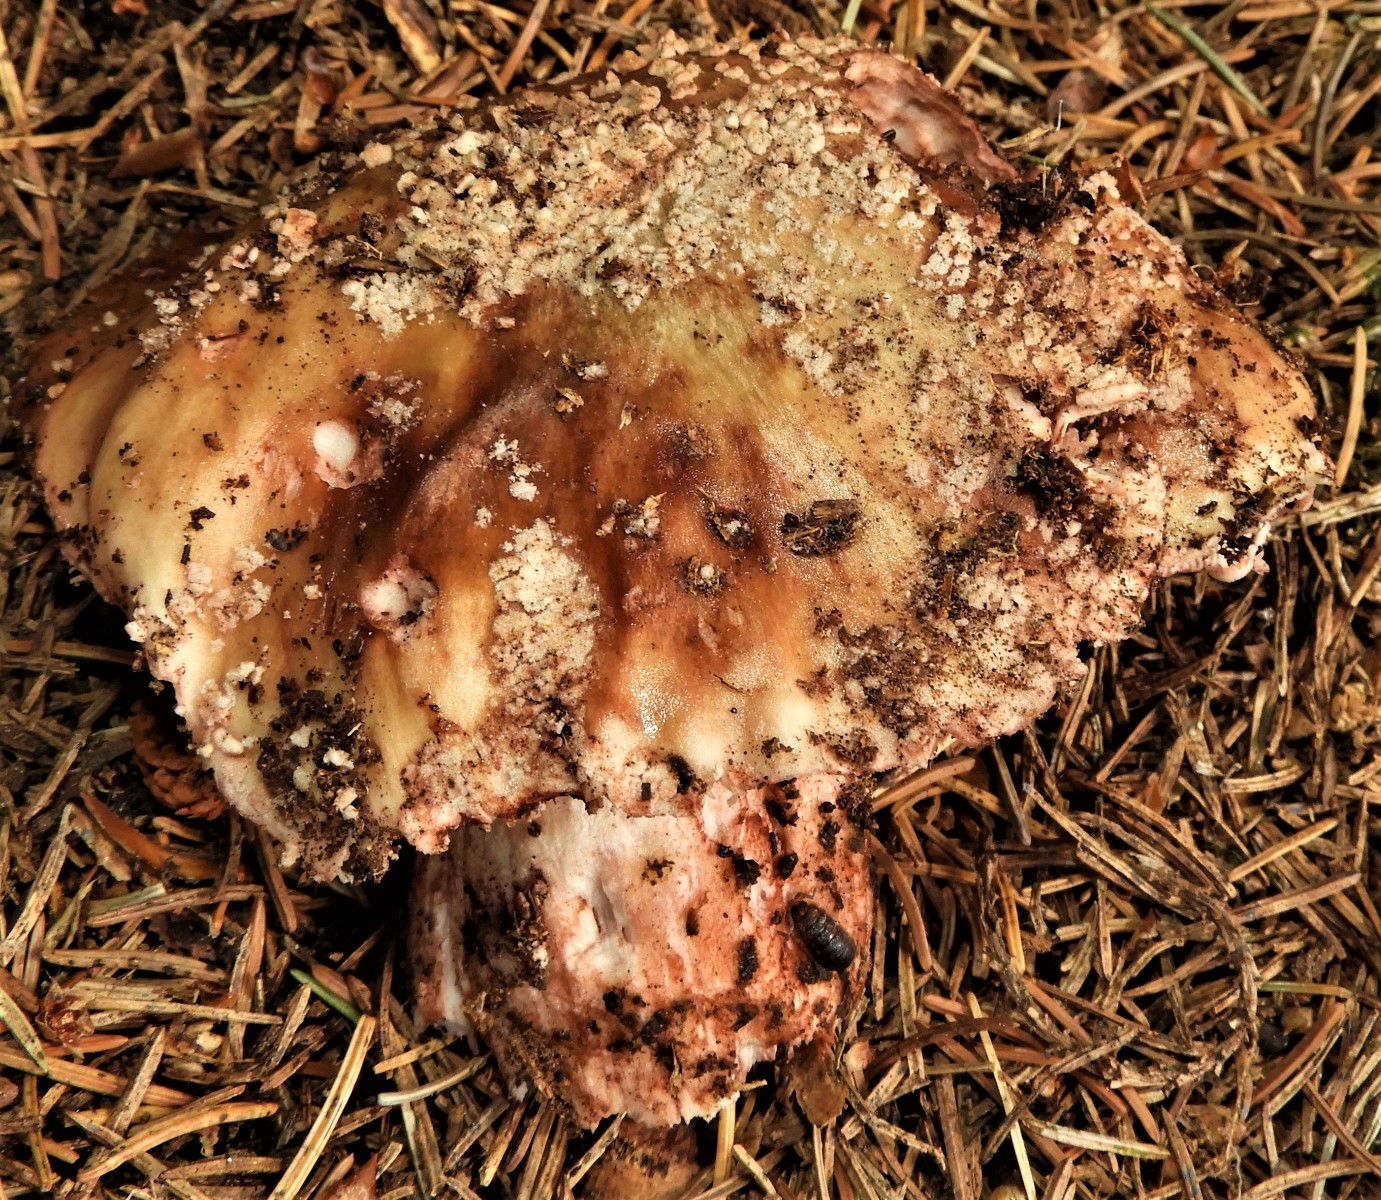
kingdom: Fungi
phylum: Basidiomycota
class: Agaricomycetes
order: Agaricales
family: Amanitaceae
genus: Amanita
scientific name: Amanita rubescens
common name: rødmende fluesvamp
